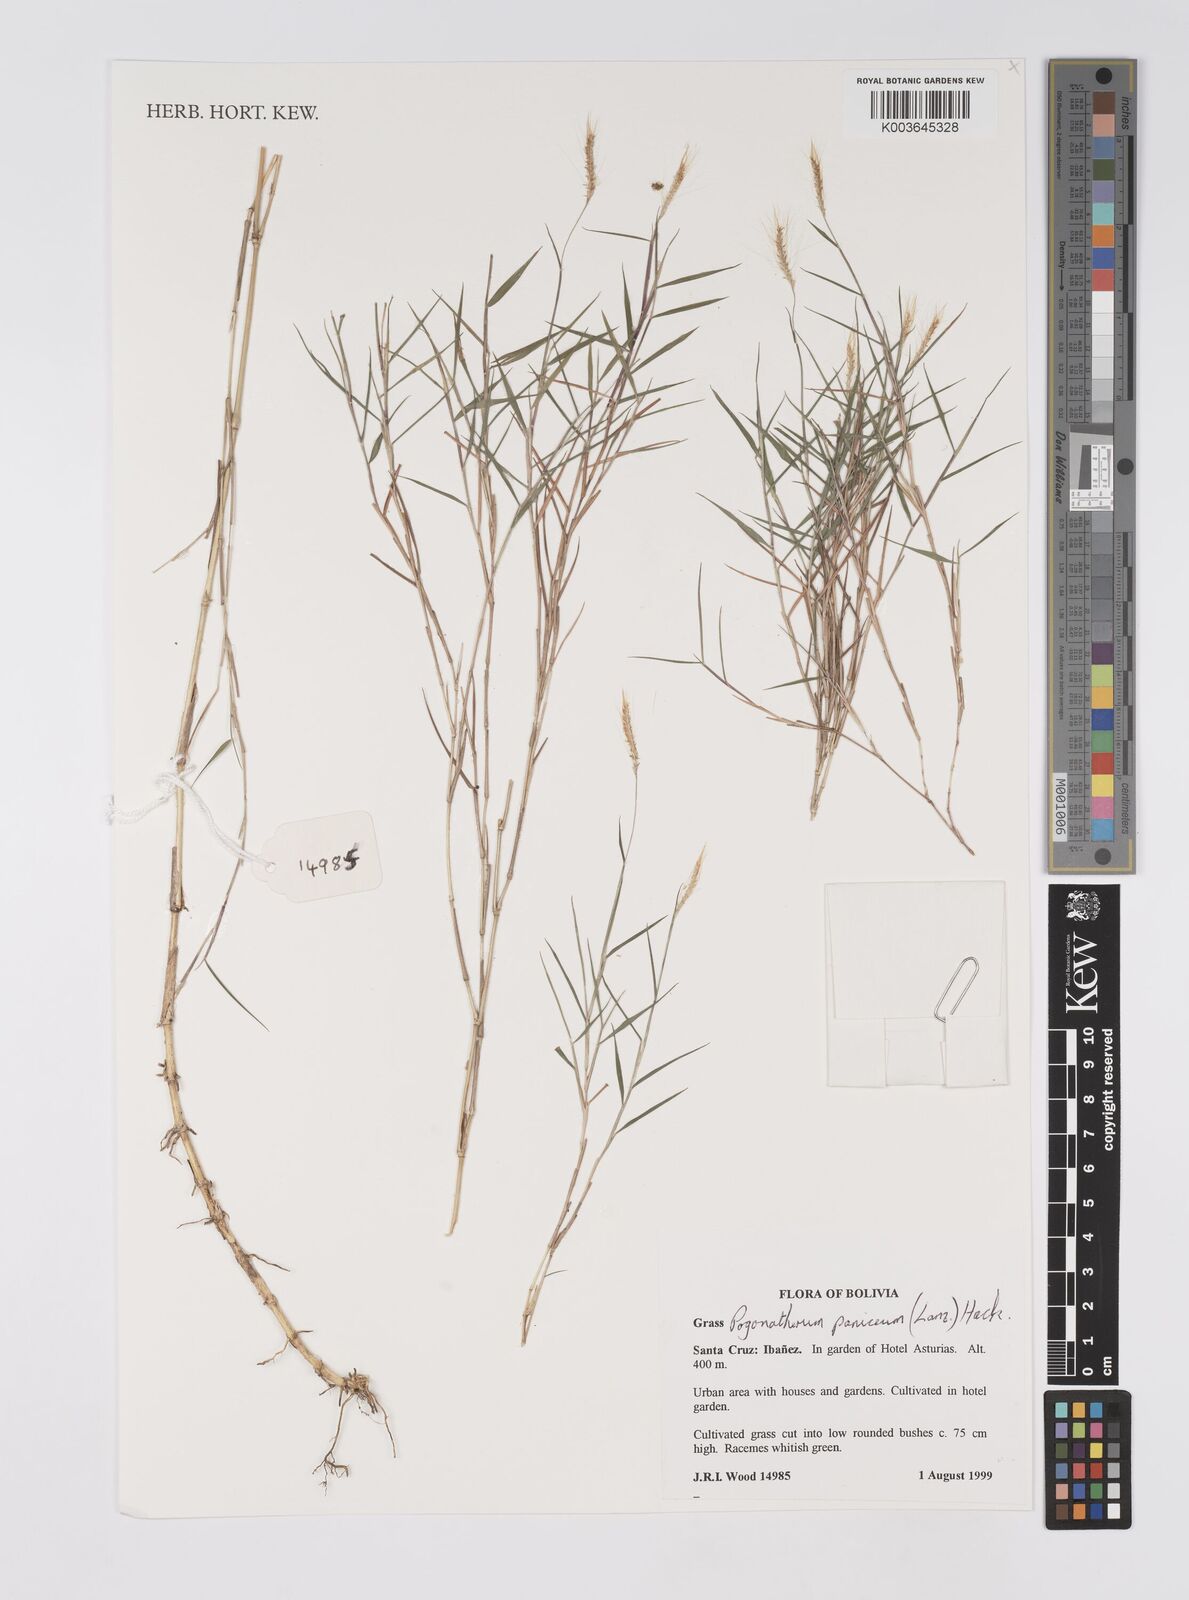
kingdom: Plantae
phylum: Tracheophyta
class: Liliopsida
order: Poales
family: Poaceae
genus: Pogonatherum
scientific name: Pogonatherum paniceum
